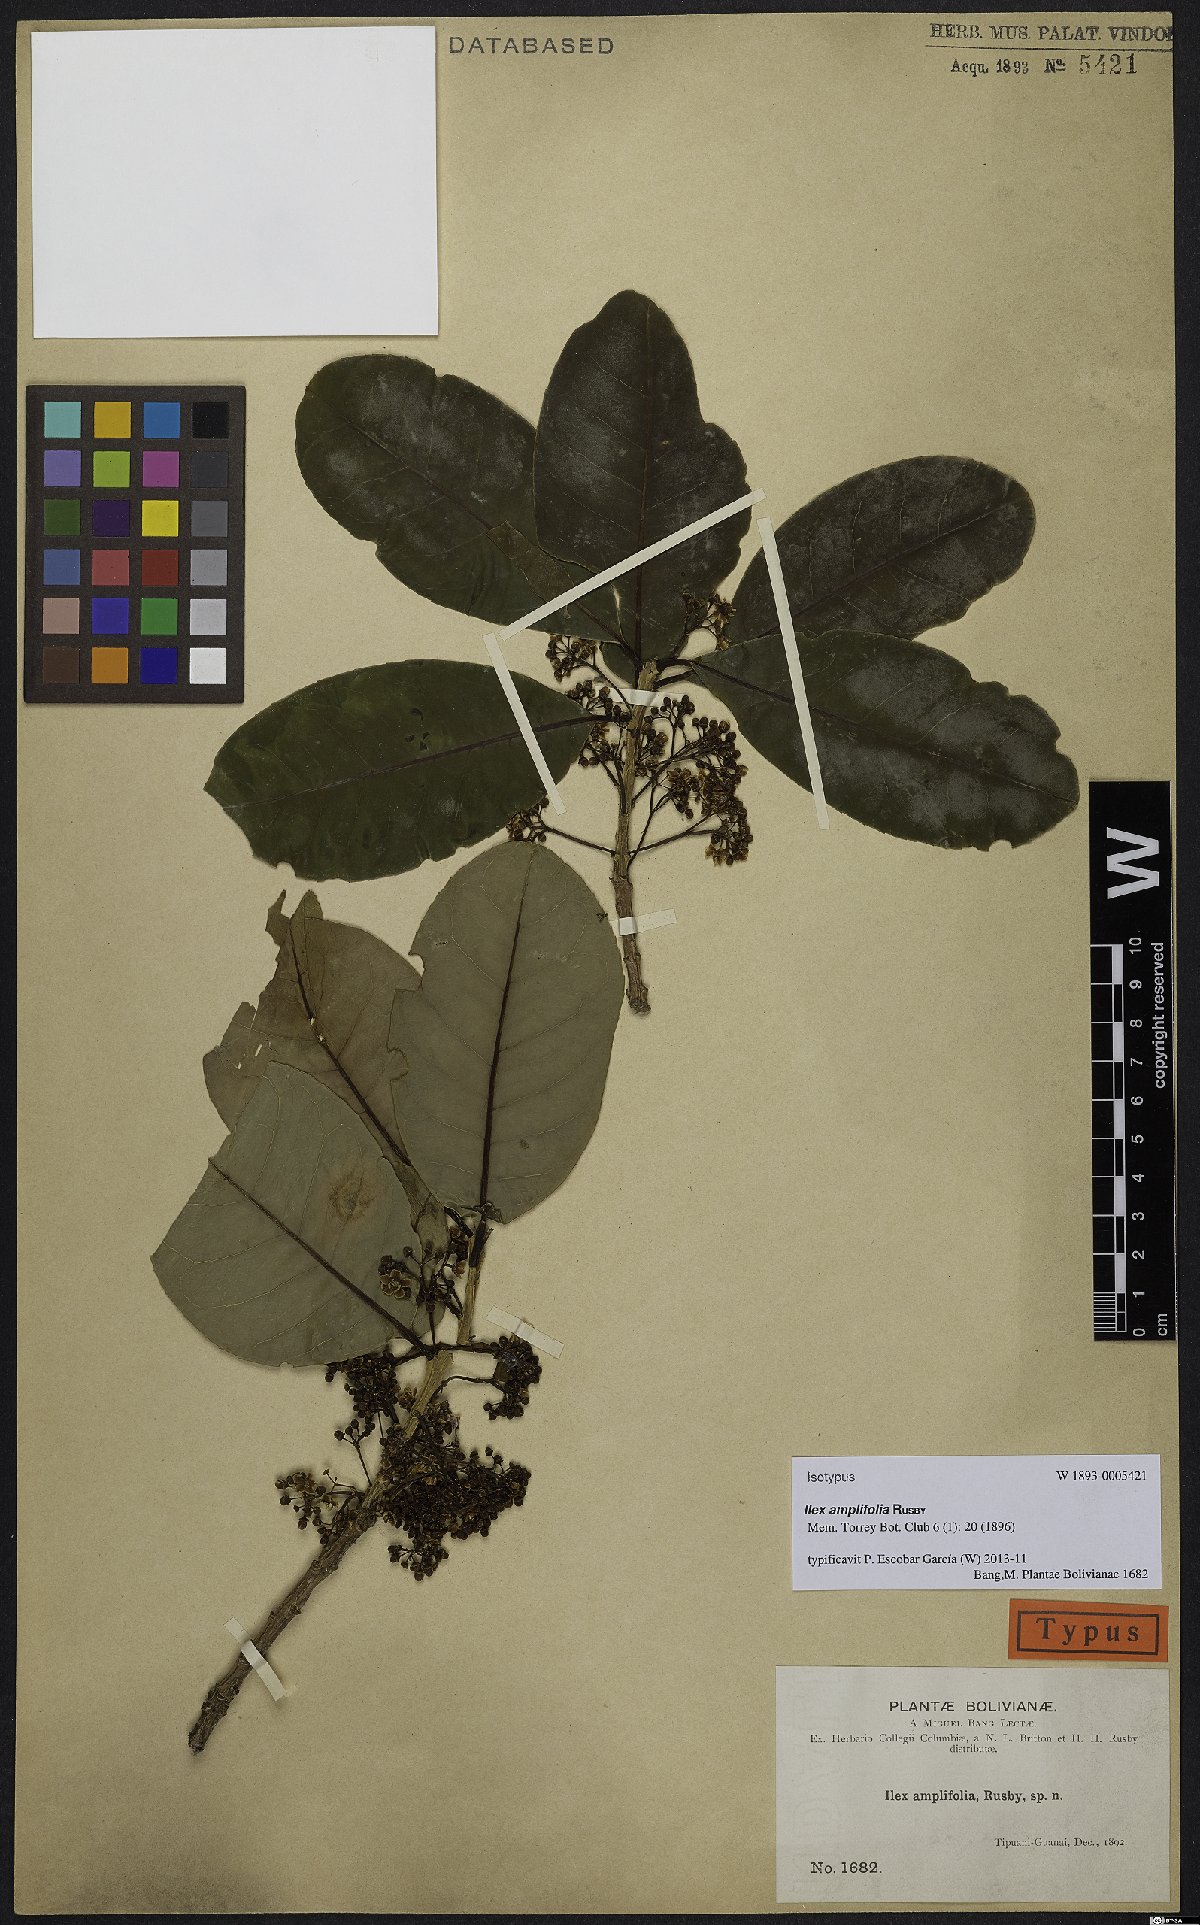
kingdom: Plantae
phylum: Tracheophyta
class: Magnoliopsida
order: Aquifoliales
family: Aquifoliaceae
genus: Ilex
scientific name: Ilex amplifolia
